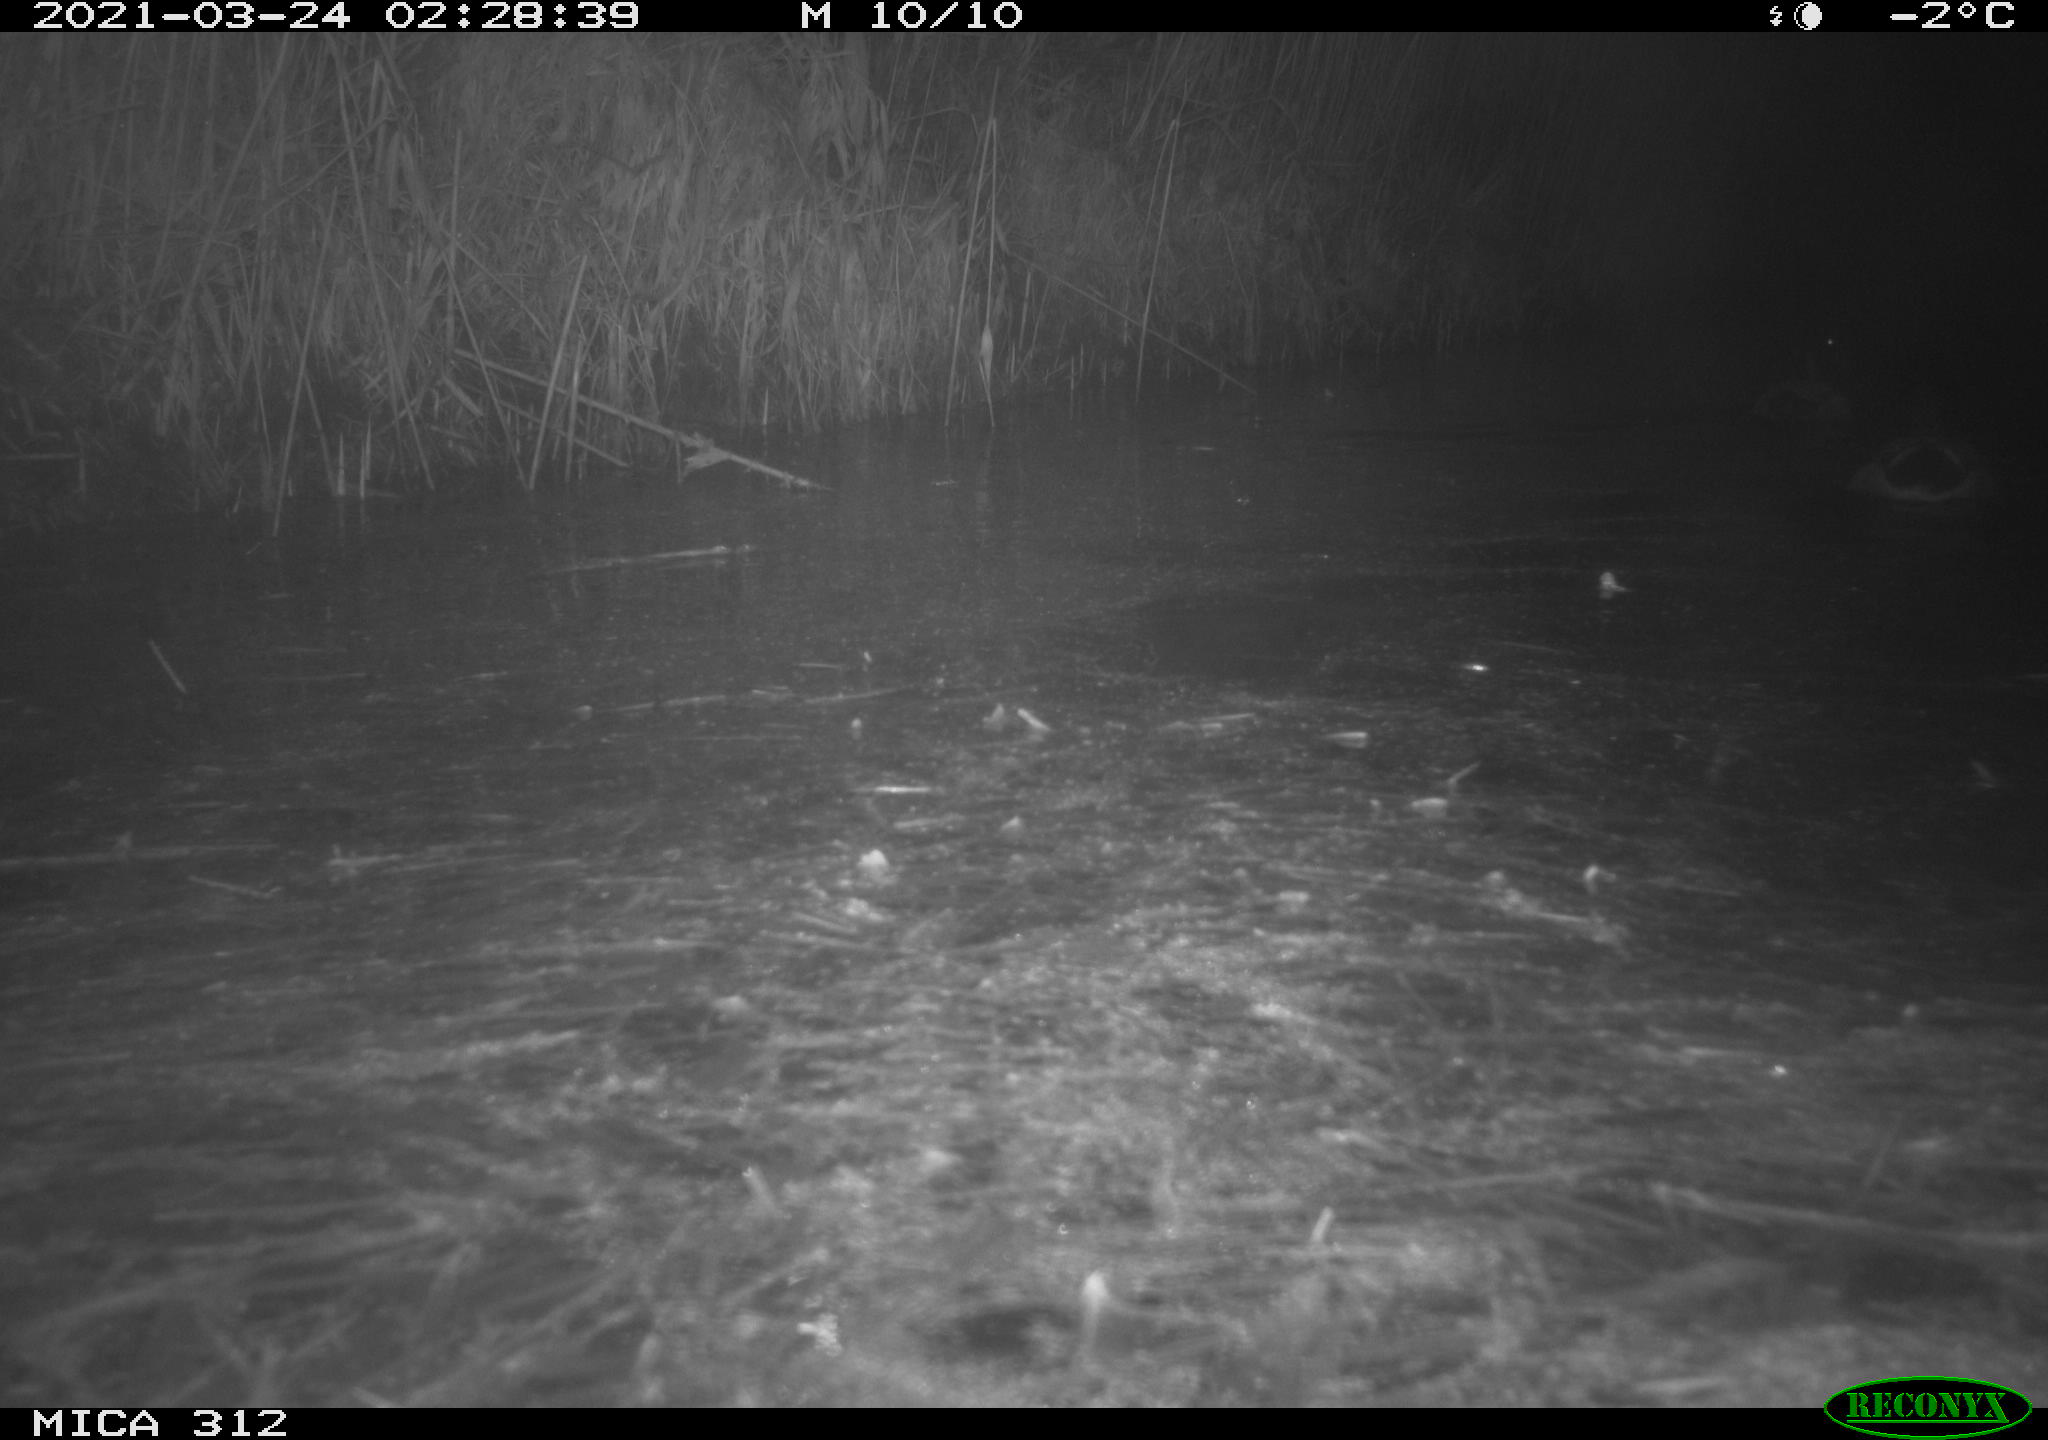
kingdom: Animalia
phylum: Chordata
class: Aves
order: Anseriformes
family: Anatidae
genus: Anas
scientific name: Anas platyrhynchos
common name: Mallard
